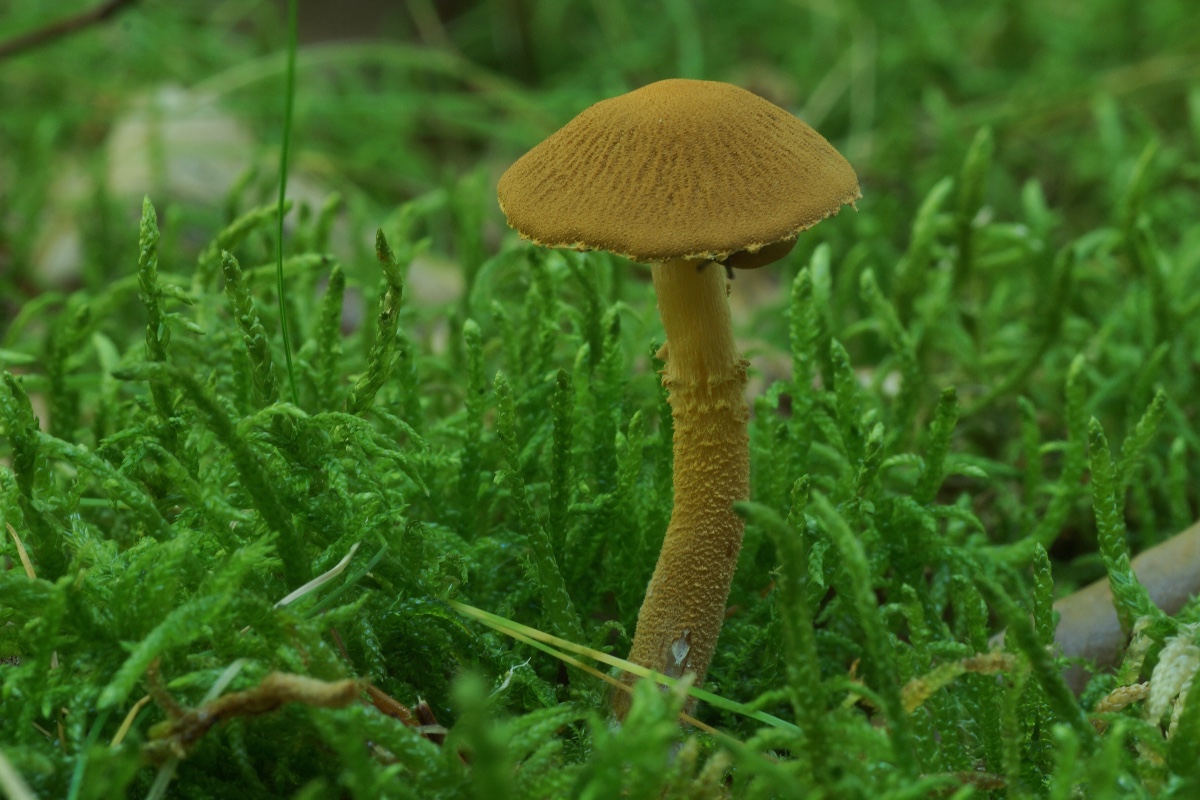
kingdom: Fungi
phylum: Basidiomycota
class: Agaricomycetes
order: Agaricales
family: Tricholomataceae
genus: Cystoderma
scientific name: Cystoderma amianthinum
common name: okkergul grynhat
